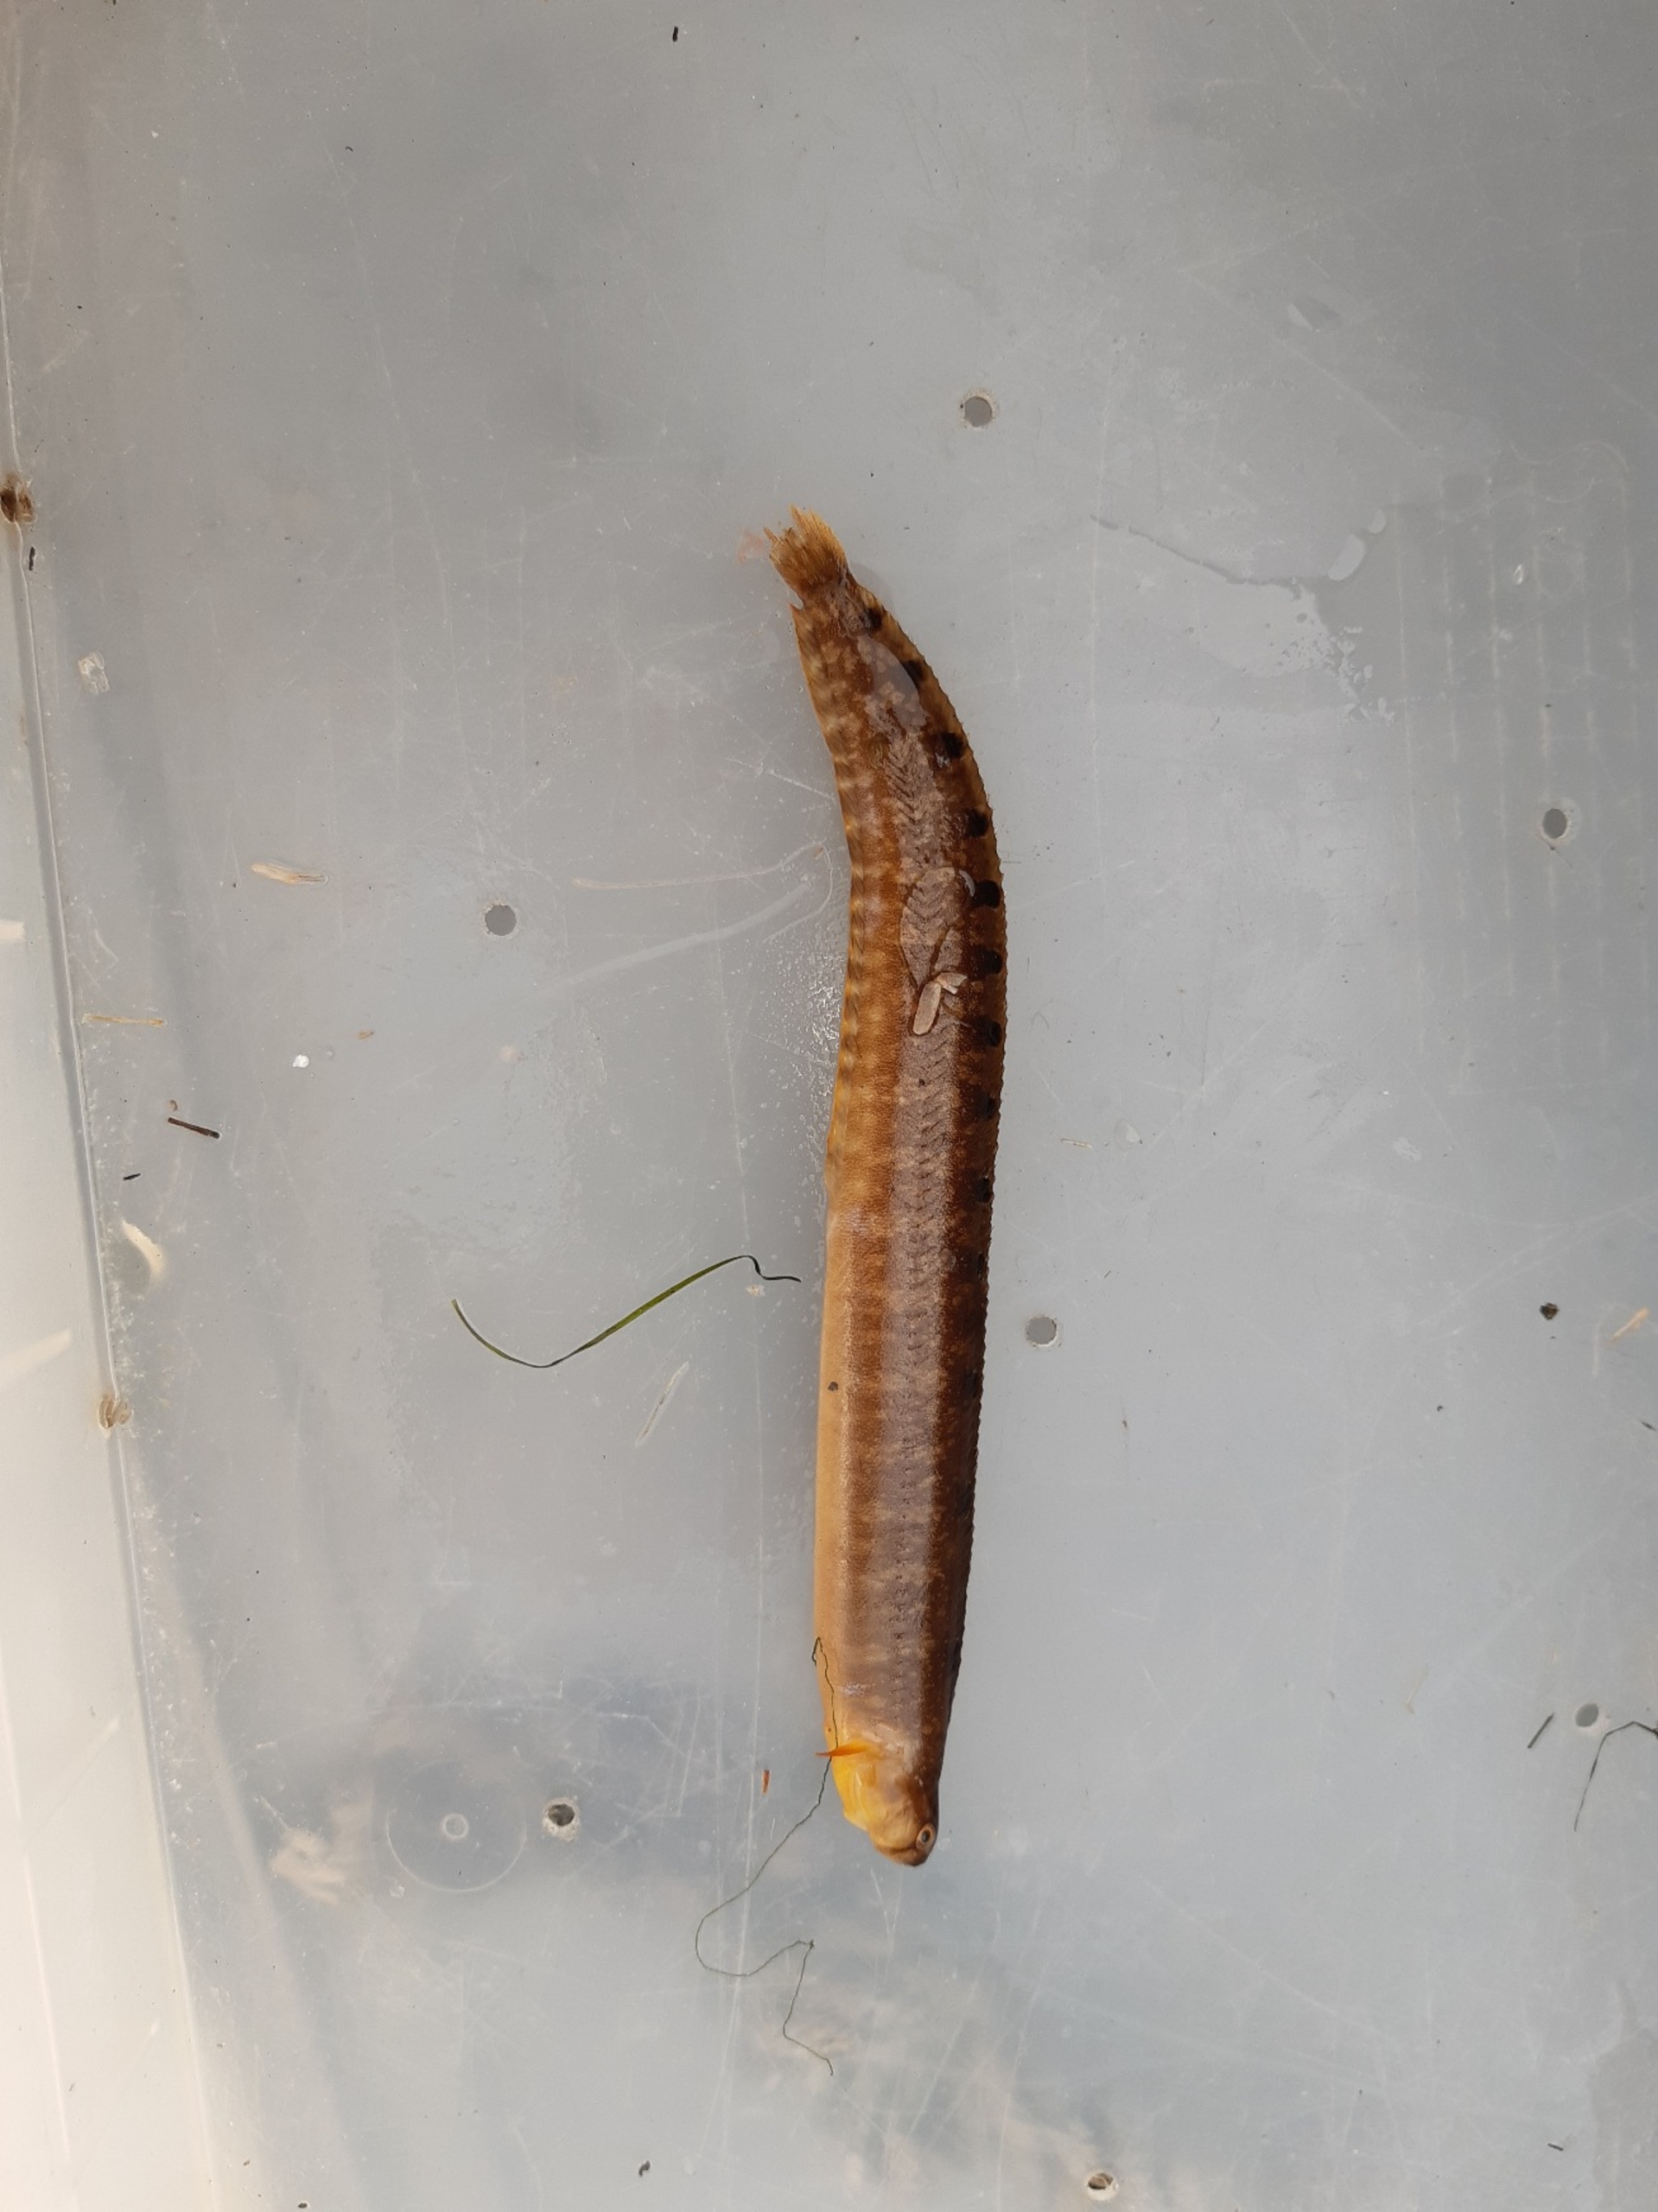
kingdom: Animalia
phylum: Chordata
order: Perciformes
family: Pholidae
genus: Pholis
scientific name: Pholis gunnellus
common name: Tangspræl
